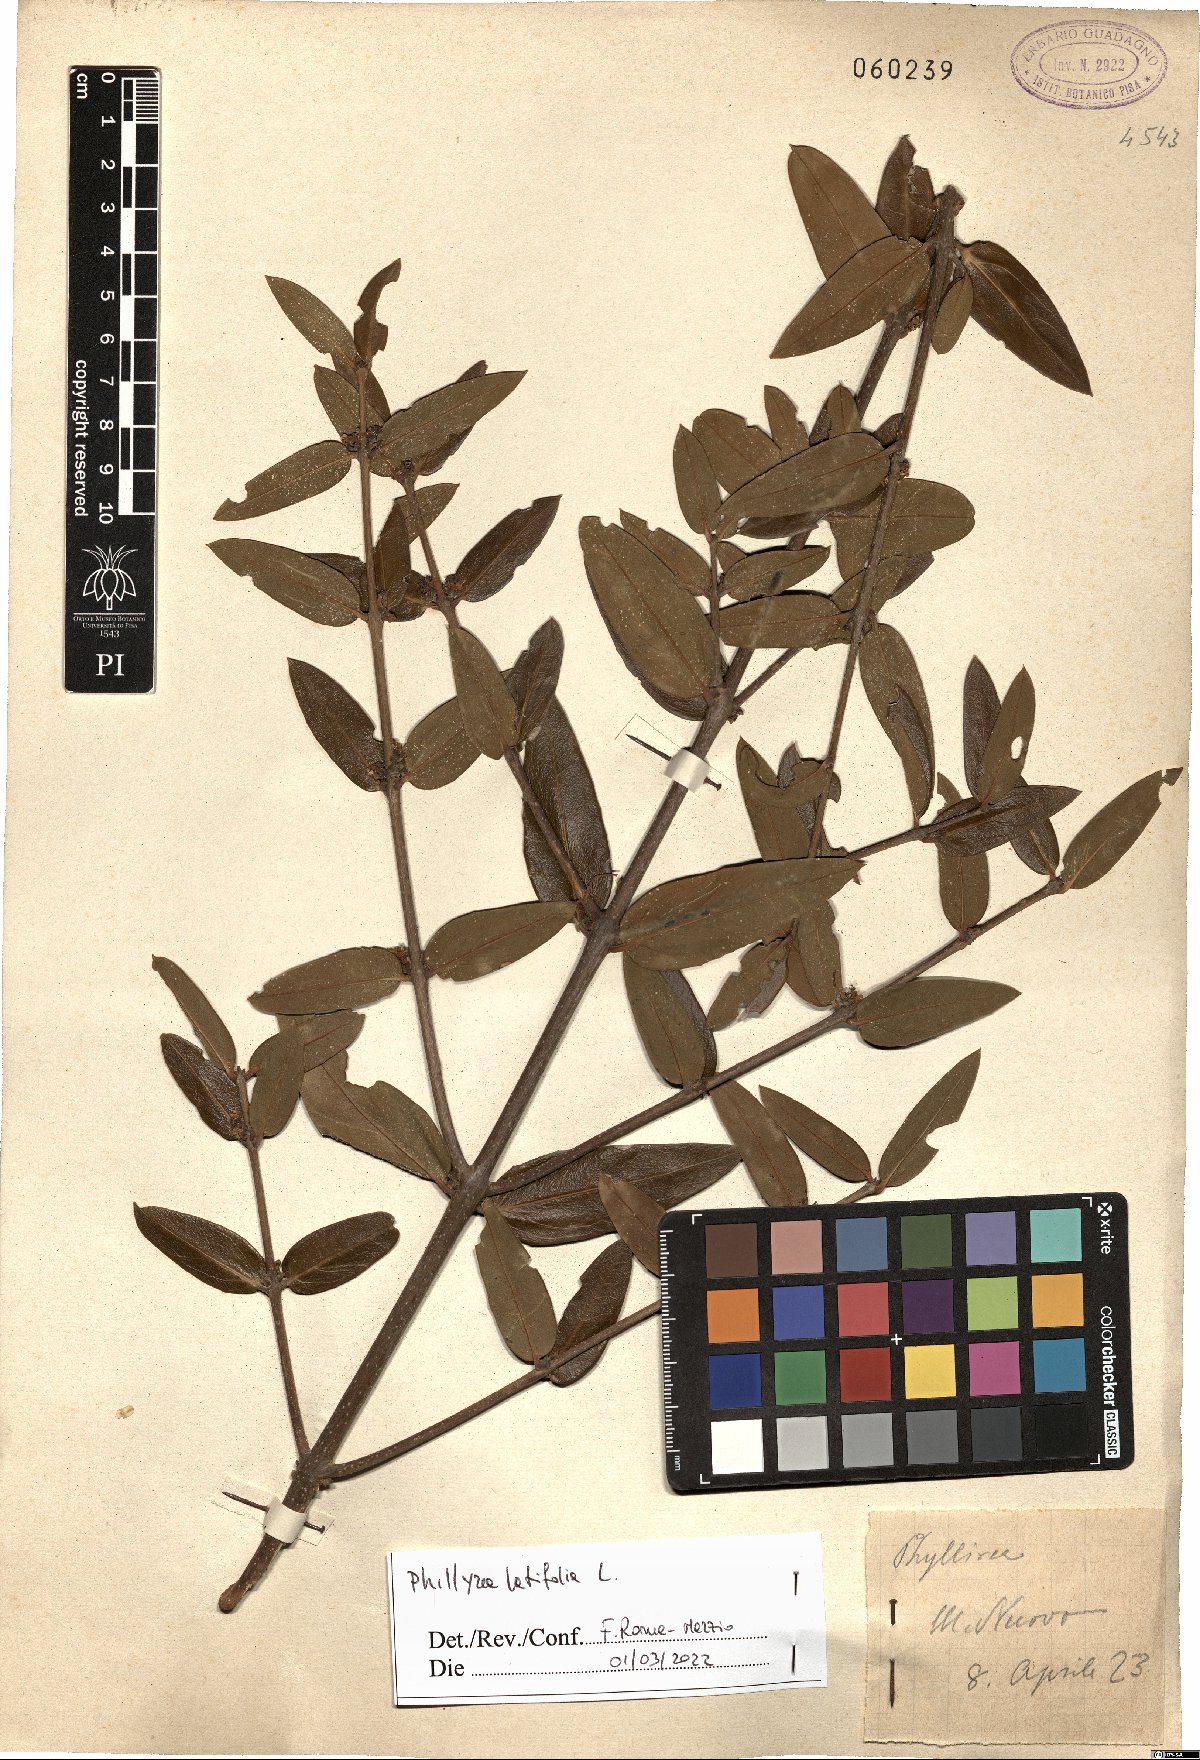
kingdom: Plantae
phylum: Tracheophyta
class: Magnoliopsida
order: Lamiales
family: Oleaceae
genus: Phillyrea
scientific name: Phillyrea latifolia
